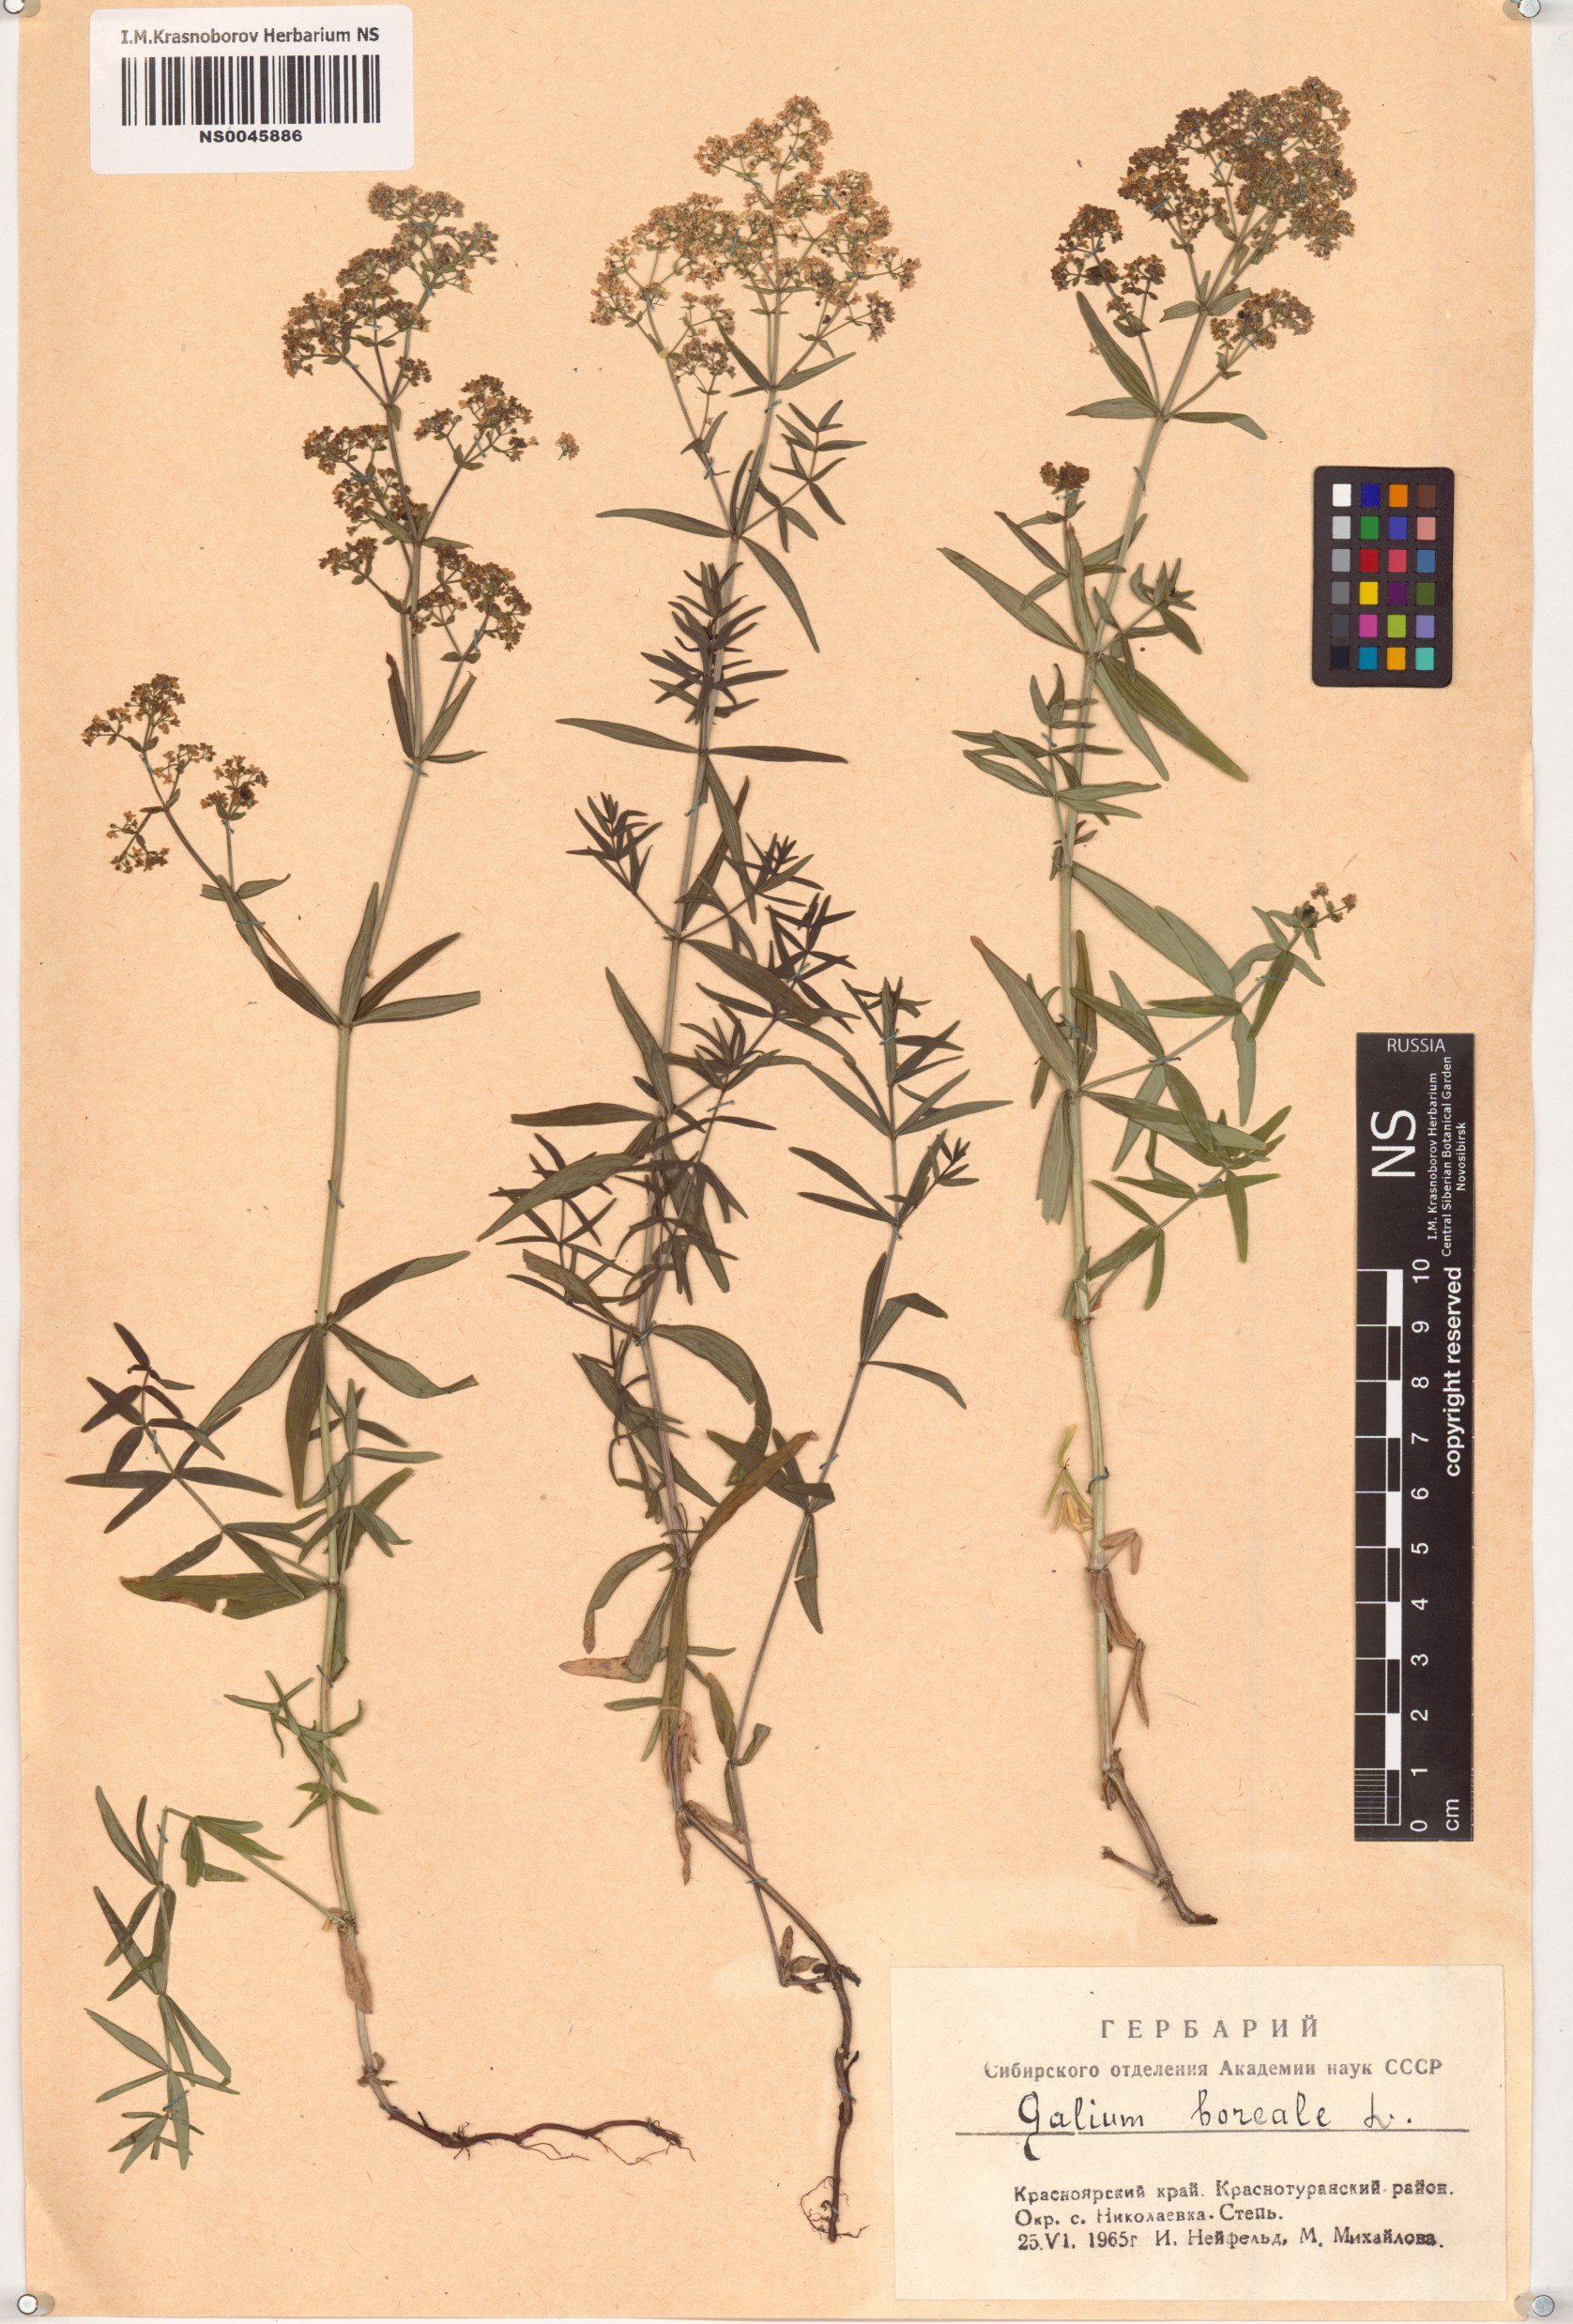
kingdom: Plantae
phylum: Tracheophyta
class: Magnoliopsida
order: Gentianales
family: Rubiaceae
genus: Galium
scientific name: Galium boreale
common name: Northern bedstraw
